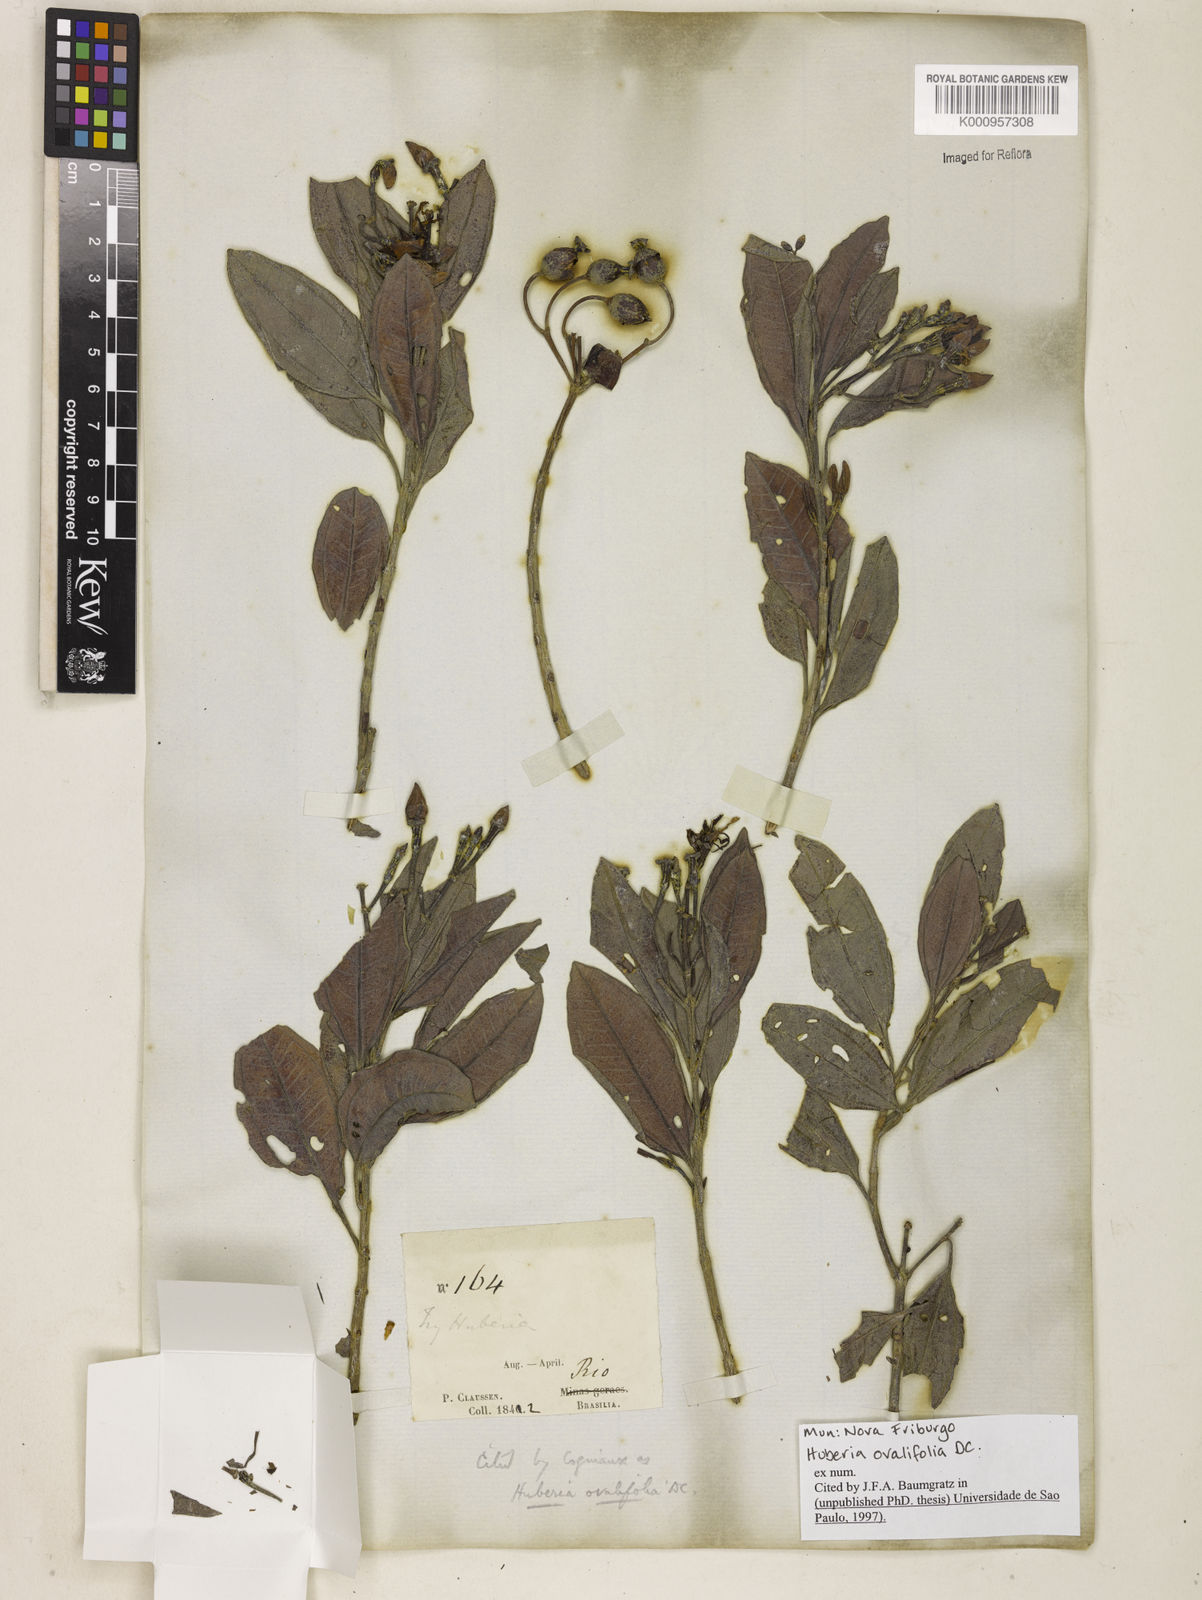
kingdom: Plantae
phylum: Tracheophyta
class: Magnoliopsida
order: Myrtales
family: Melastomataceae
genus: Huberia
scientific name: Huberia ovalifolia
